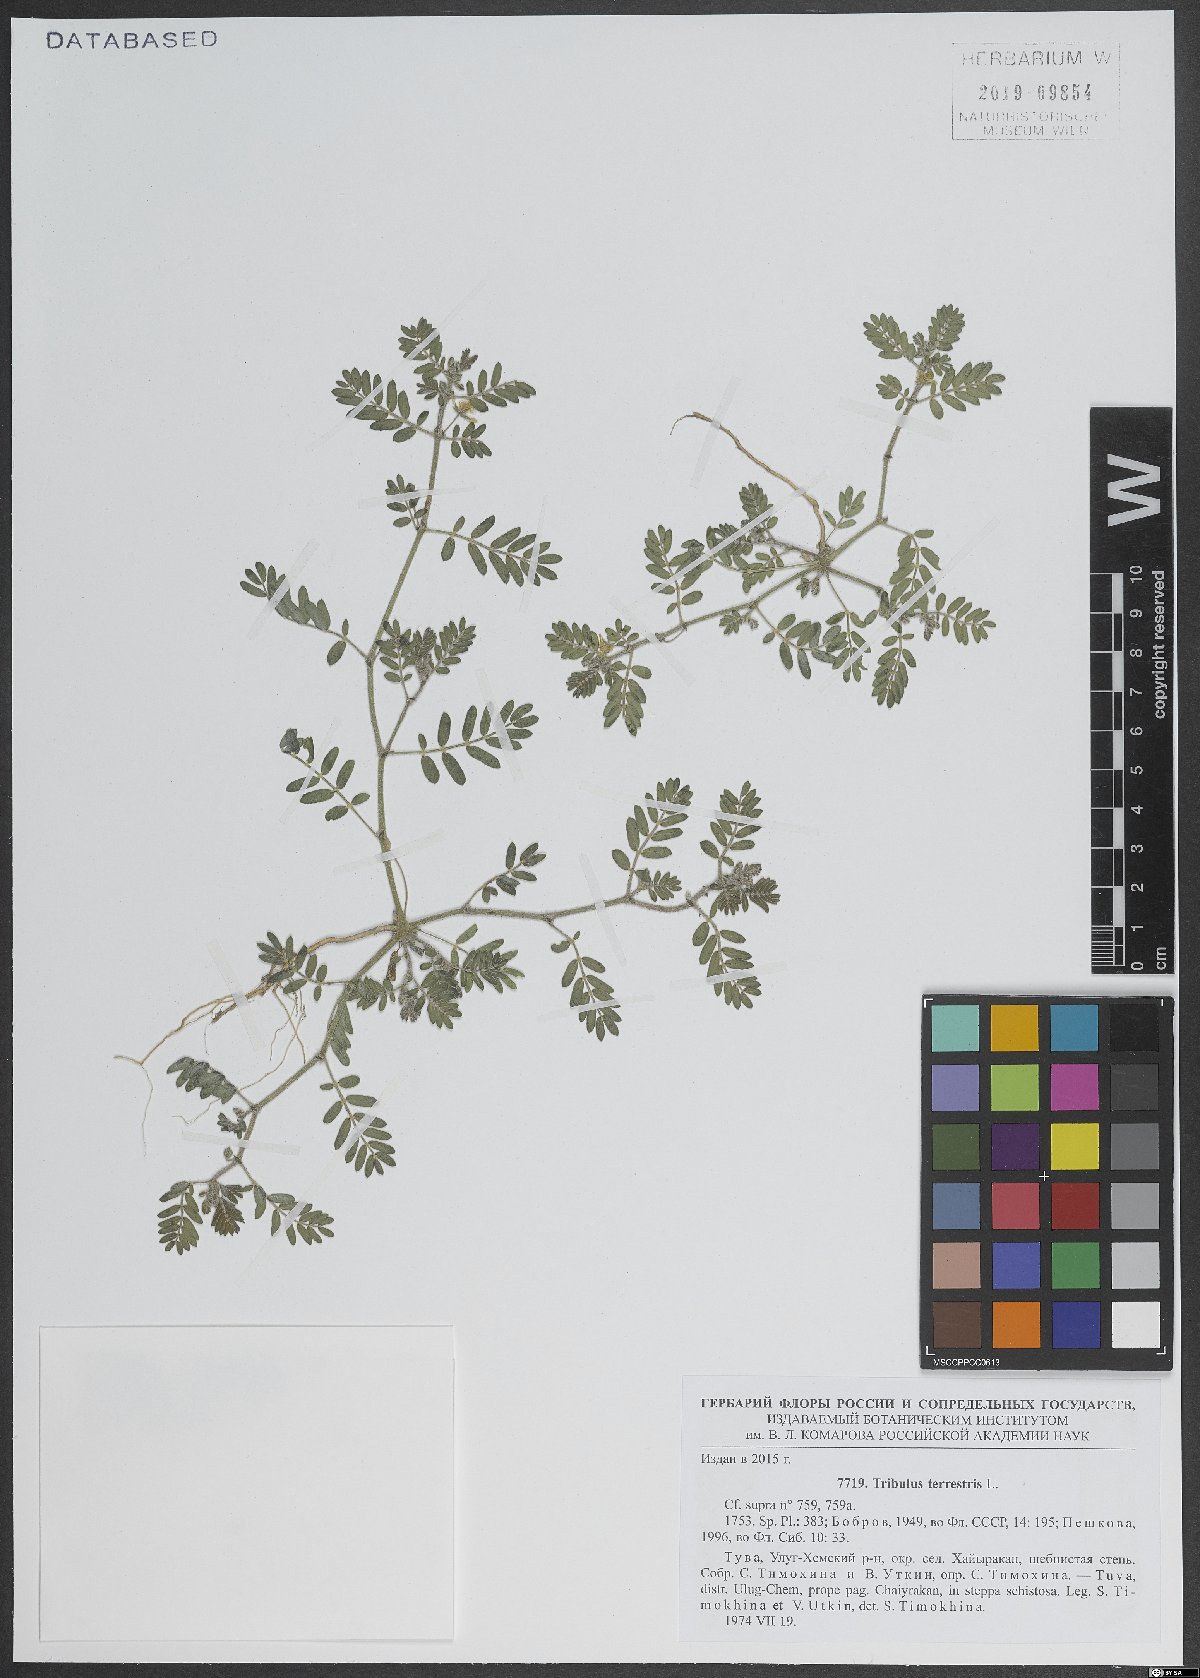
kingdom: Plantae
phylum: Tracheophyta
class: Magnoliopsida
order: Zygophyllales
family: Zygophyllaceae
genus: Tribulus
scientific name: Tribulus terrestris
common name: Puncturevine
